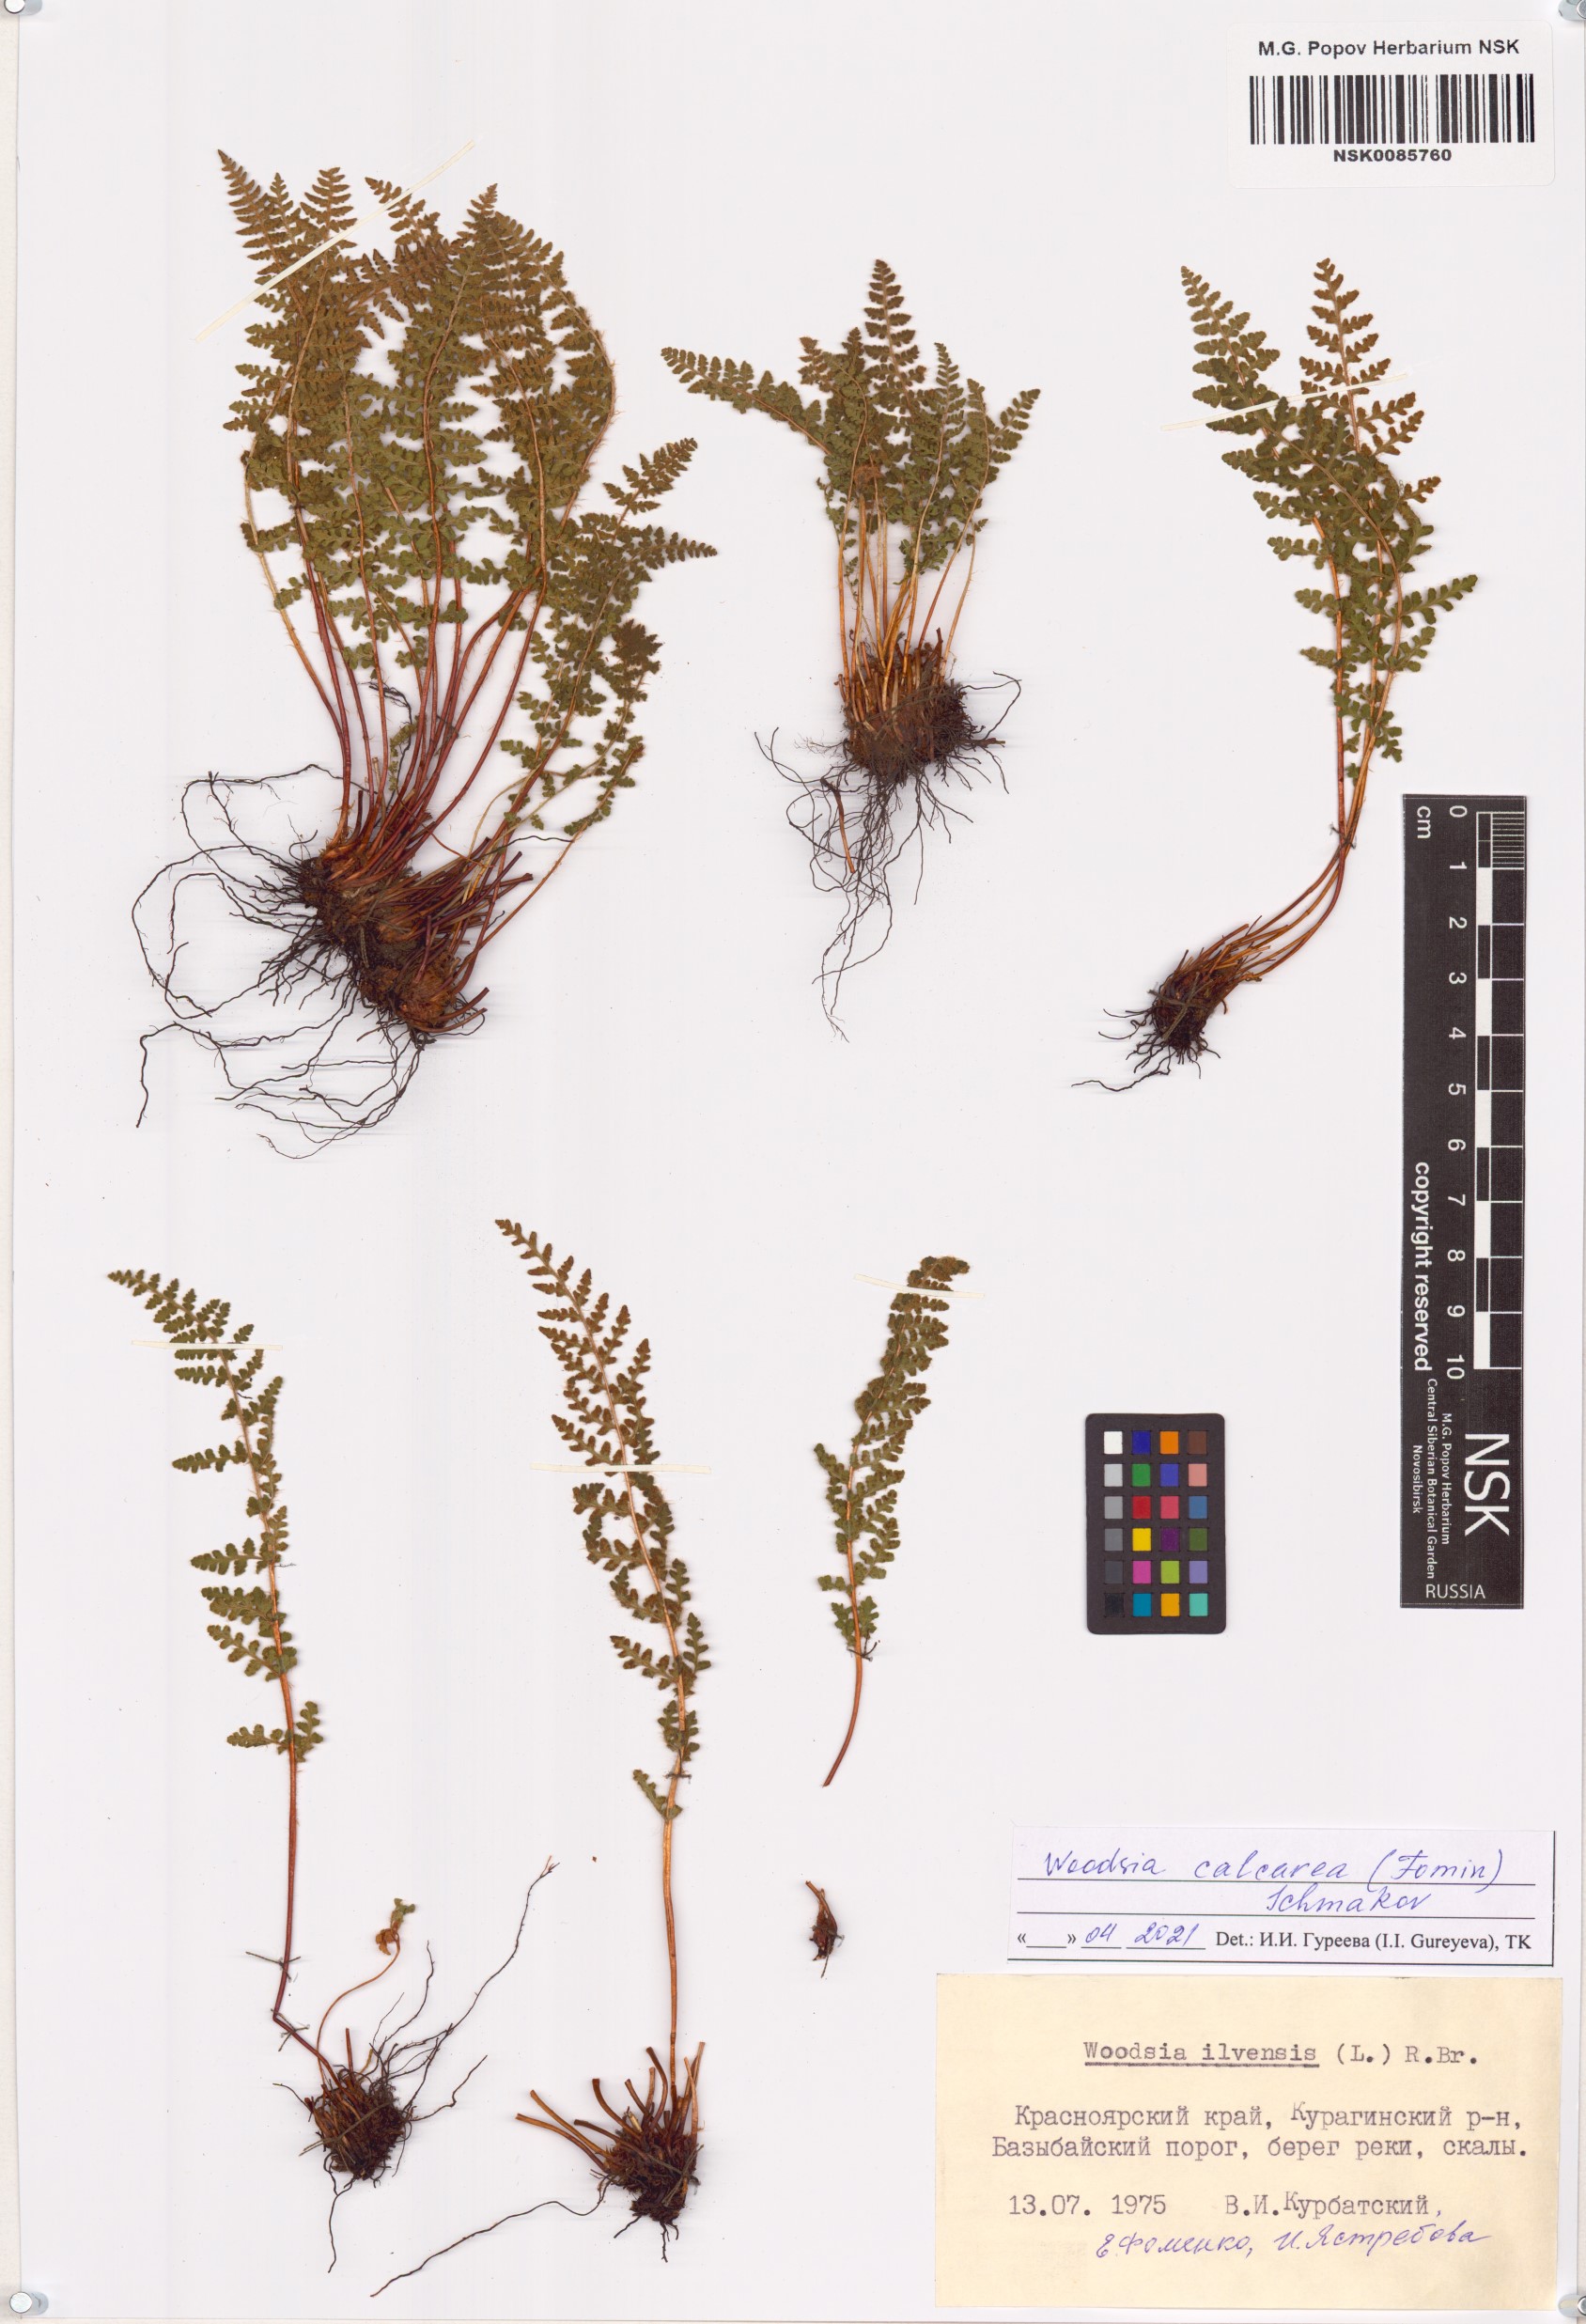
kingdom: Plantae
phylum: Tracheophyta
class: Polypodiopsida
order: Polypodiales
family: Woodsiaceae
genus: Woodsia
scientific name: Woodsia calcarea
